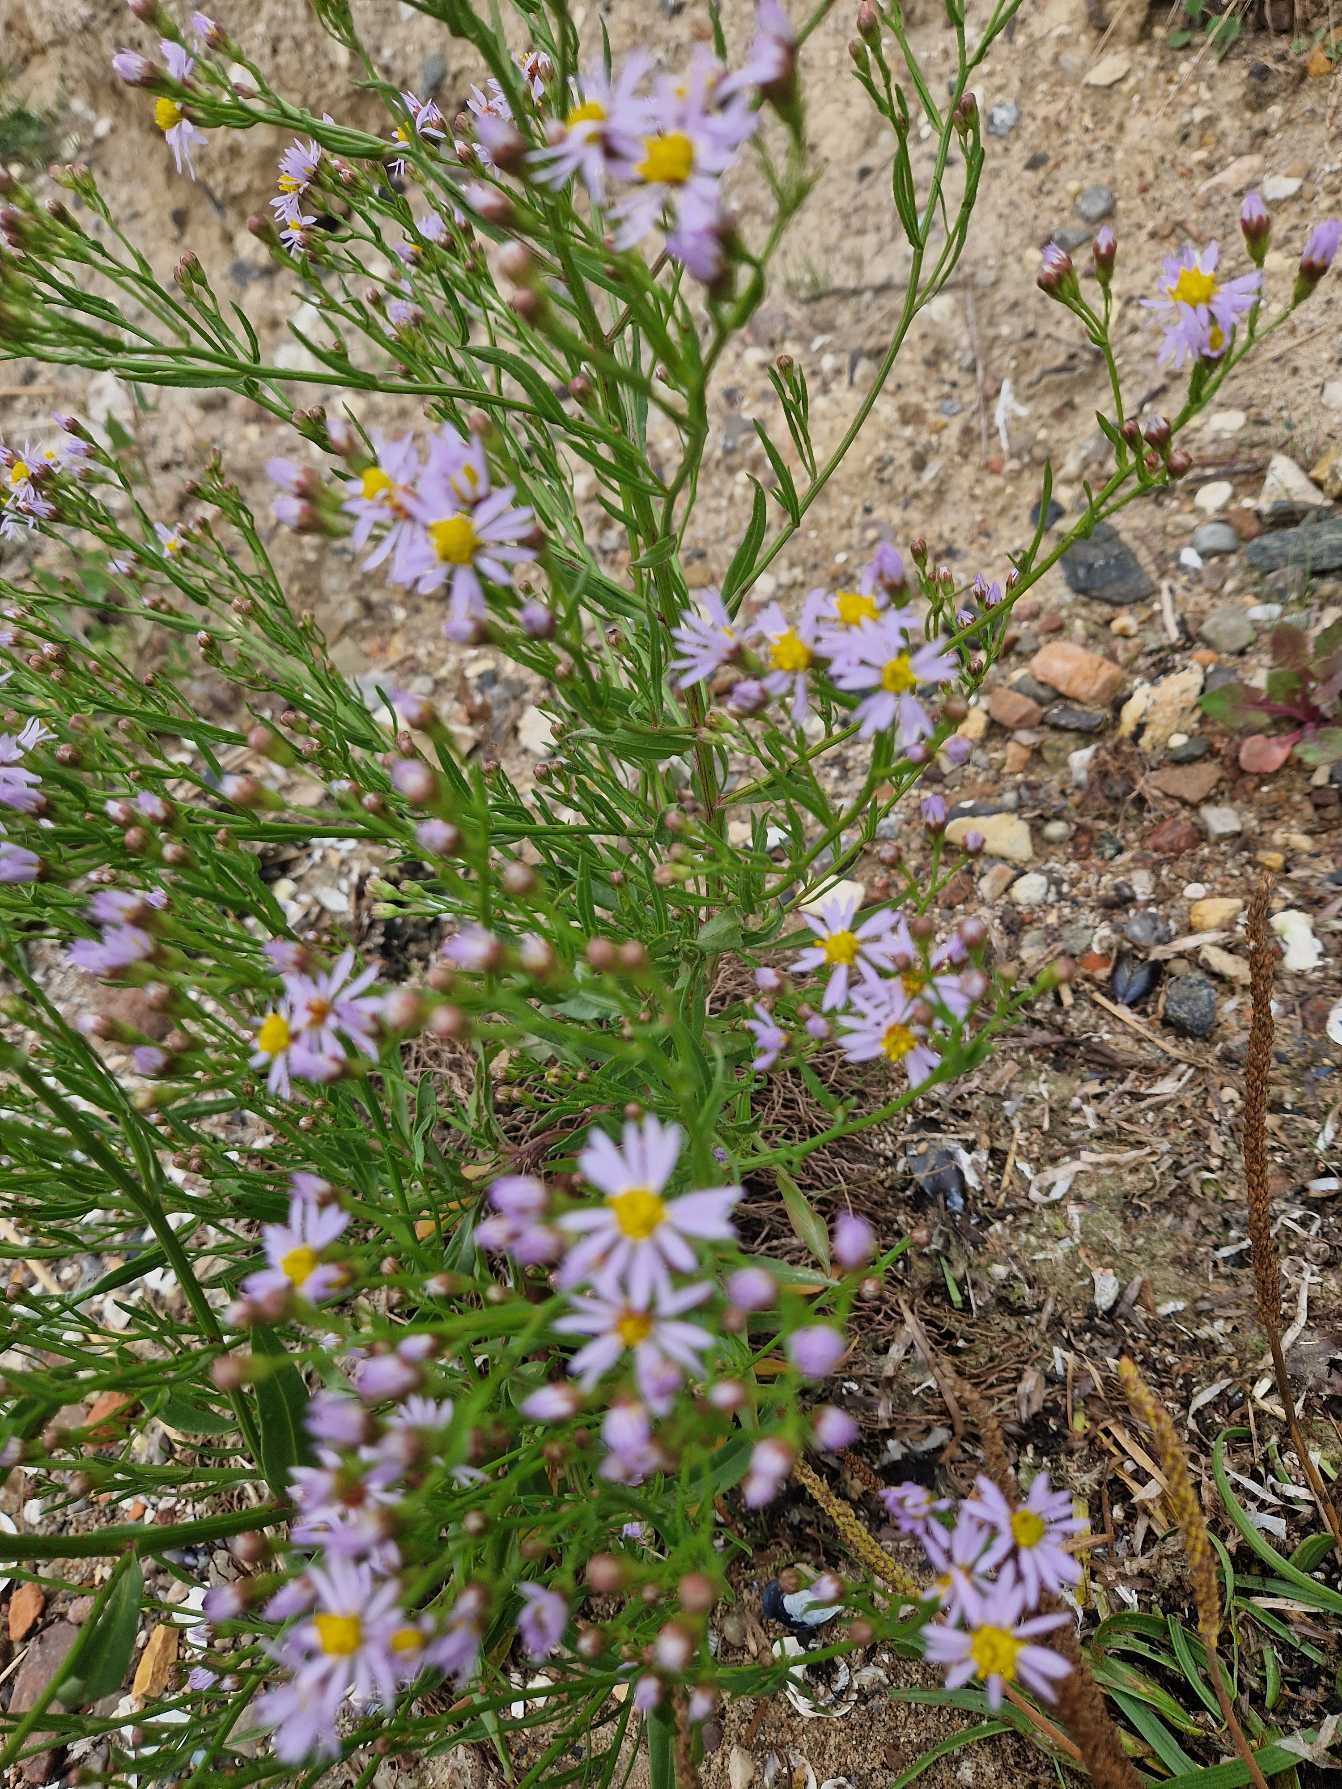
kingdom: Plantae
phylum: Tracheophyta
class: Magnoliopsida
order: Asterales
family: Asteraceae
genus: Tripolium
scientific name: Tripolium pannonicum
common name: Strandasters
